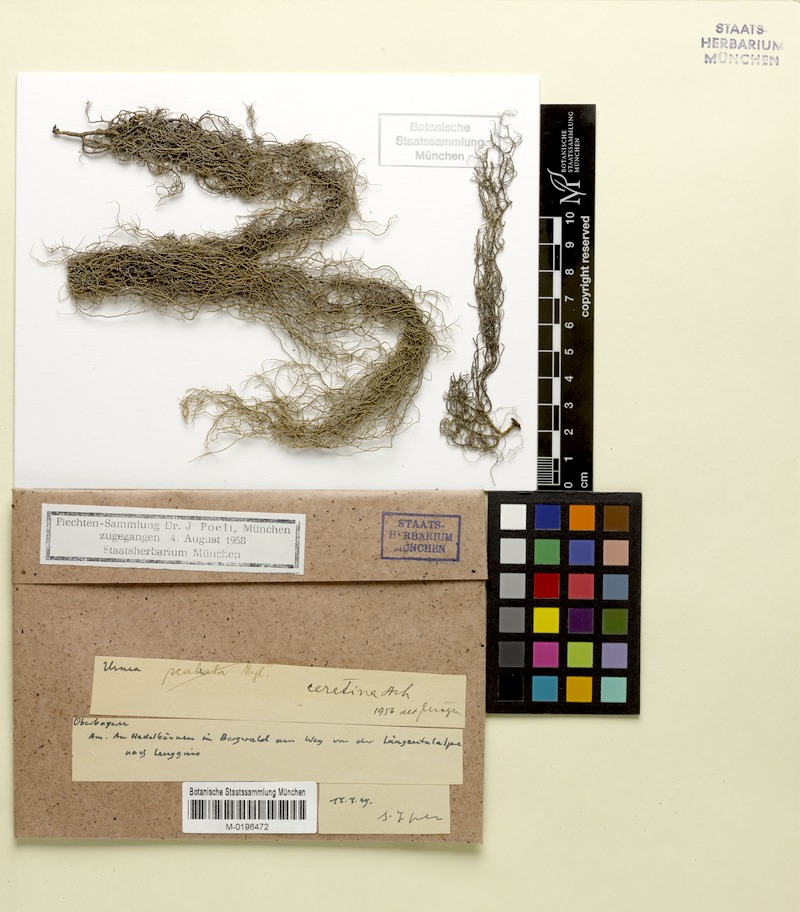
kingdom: Fungi
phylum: Ascomycota
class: Lecanoromycetes
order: Lecanorales
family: Parmeliaceae
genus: Usnea
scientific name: Usnea ceratina
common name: Warty beard lichen
